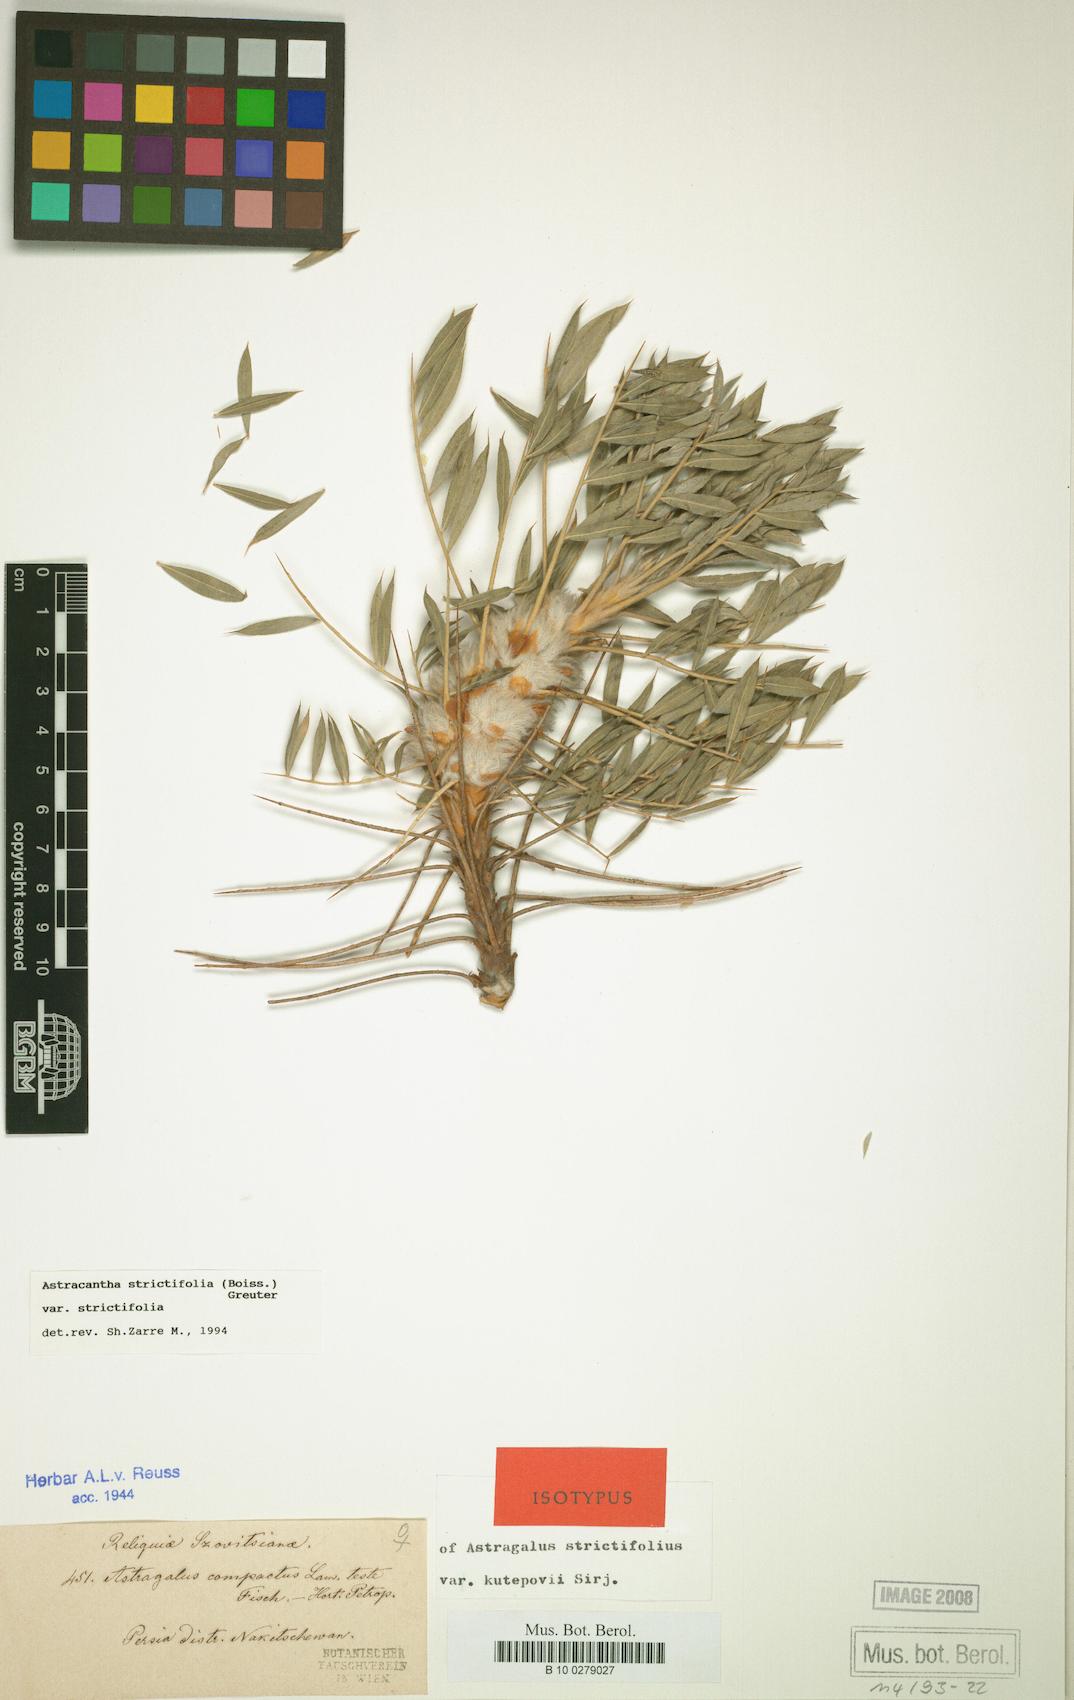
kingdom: Plantae
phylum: Tracheophyta
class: Magnoliopsida
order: Fabales
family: Fabaceae
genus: Astragalus
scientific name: Astragalus strictifolius
